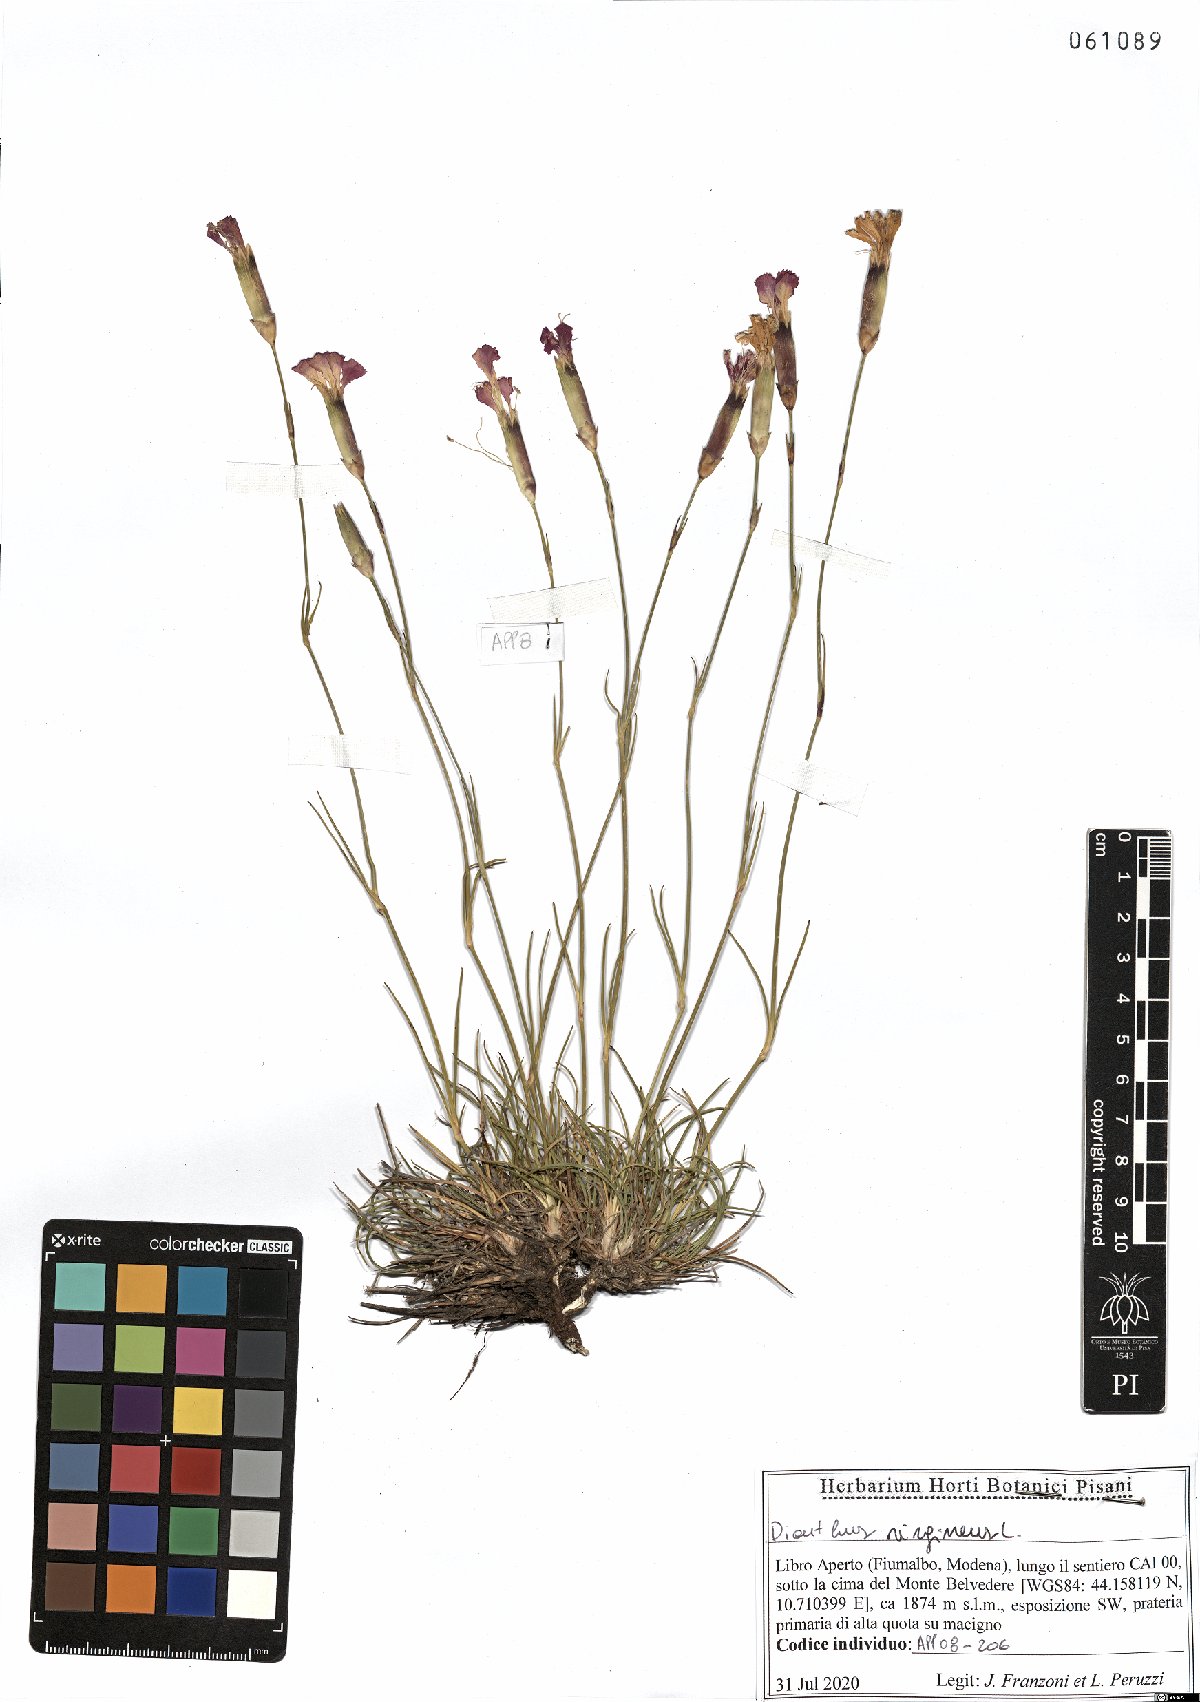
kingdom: Plantae
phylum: Tracheophyta
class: Magnoliopsida
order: Caryophyllales
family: Caryophyllaceae
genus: Dianthus
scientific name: Dianthus virgineus
